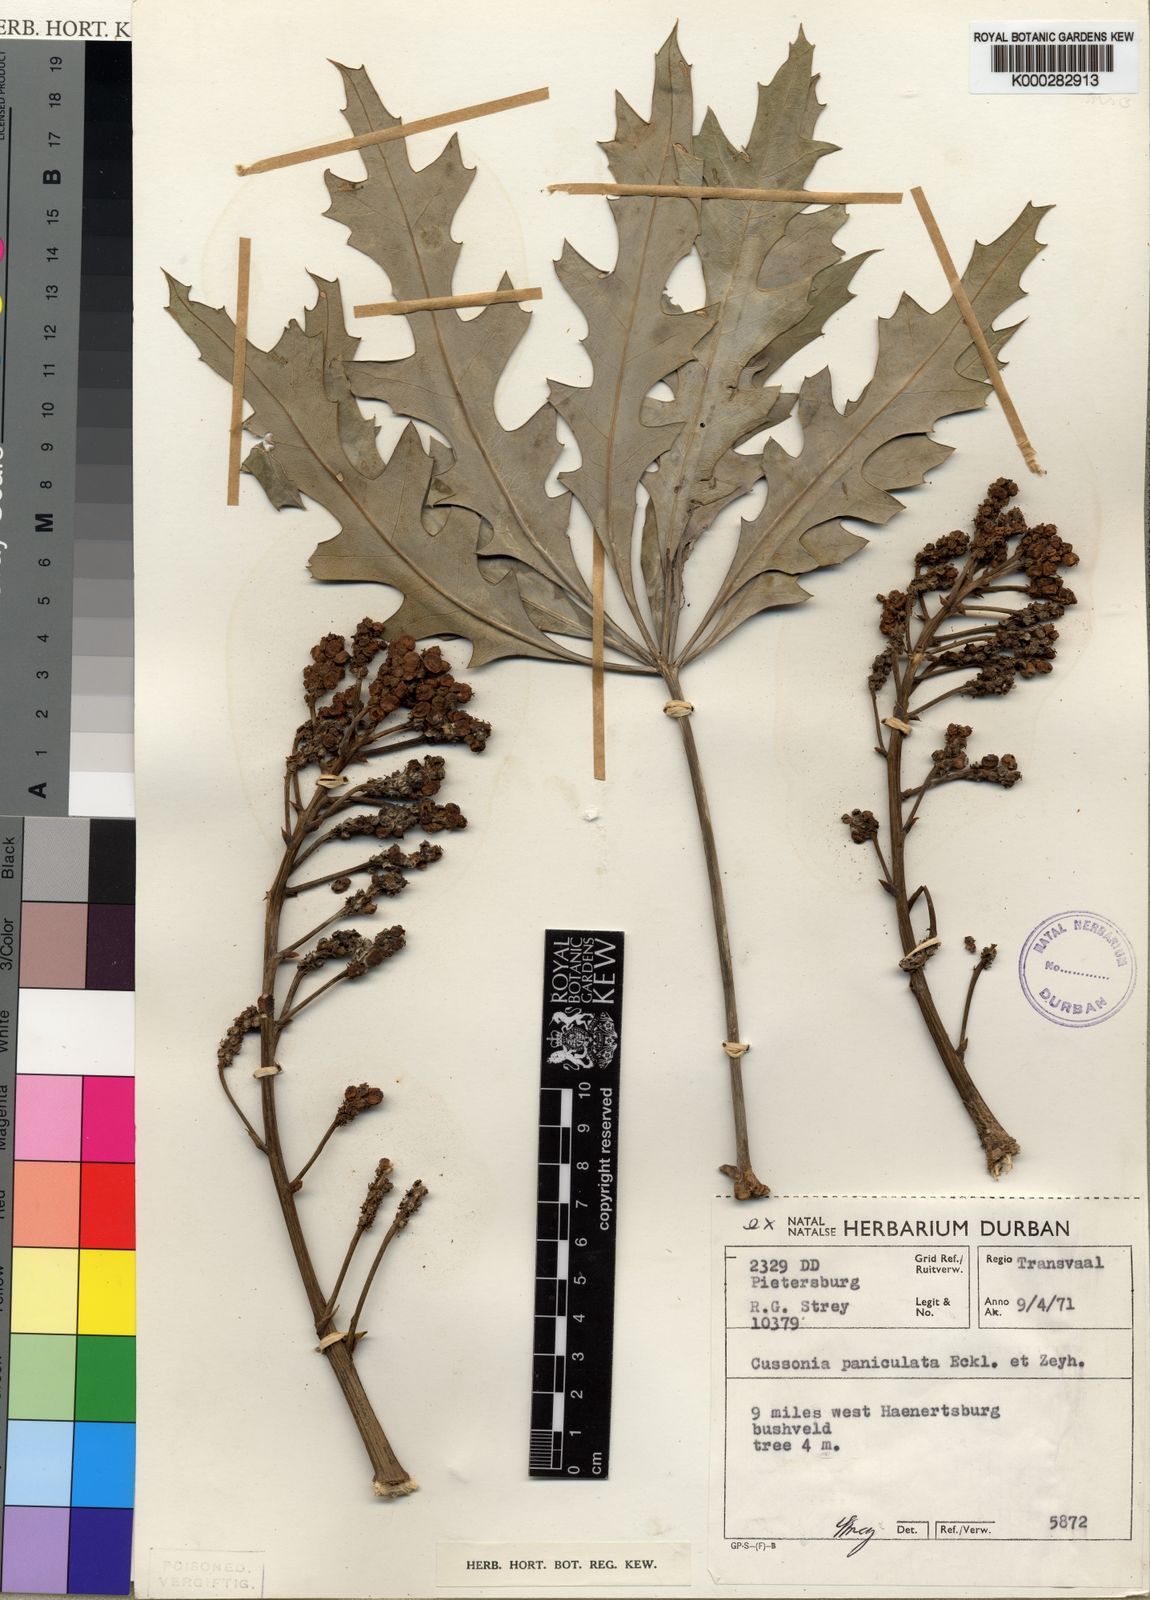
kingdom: Plantae
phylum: Tracheophyta
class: Magnoliopsida
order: Apiales
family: Araliaceae
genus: Cussonia
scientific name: Cussonia paniculata
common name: Cabbagetree
